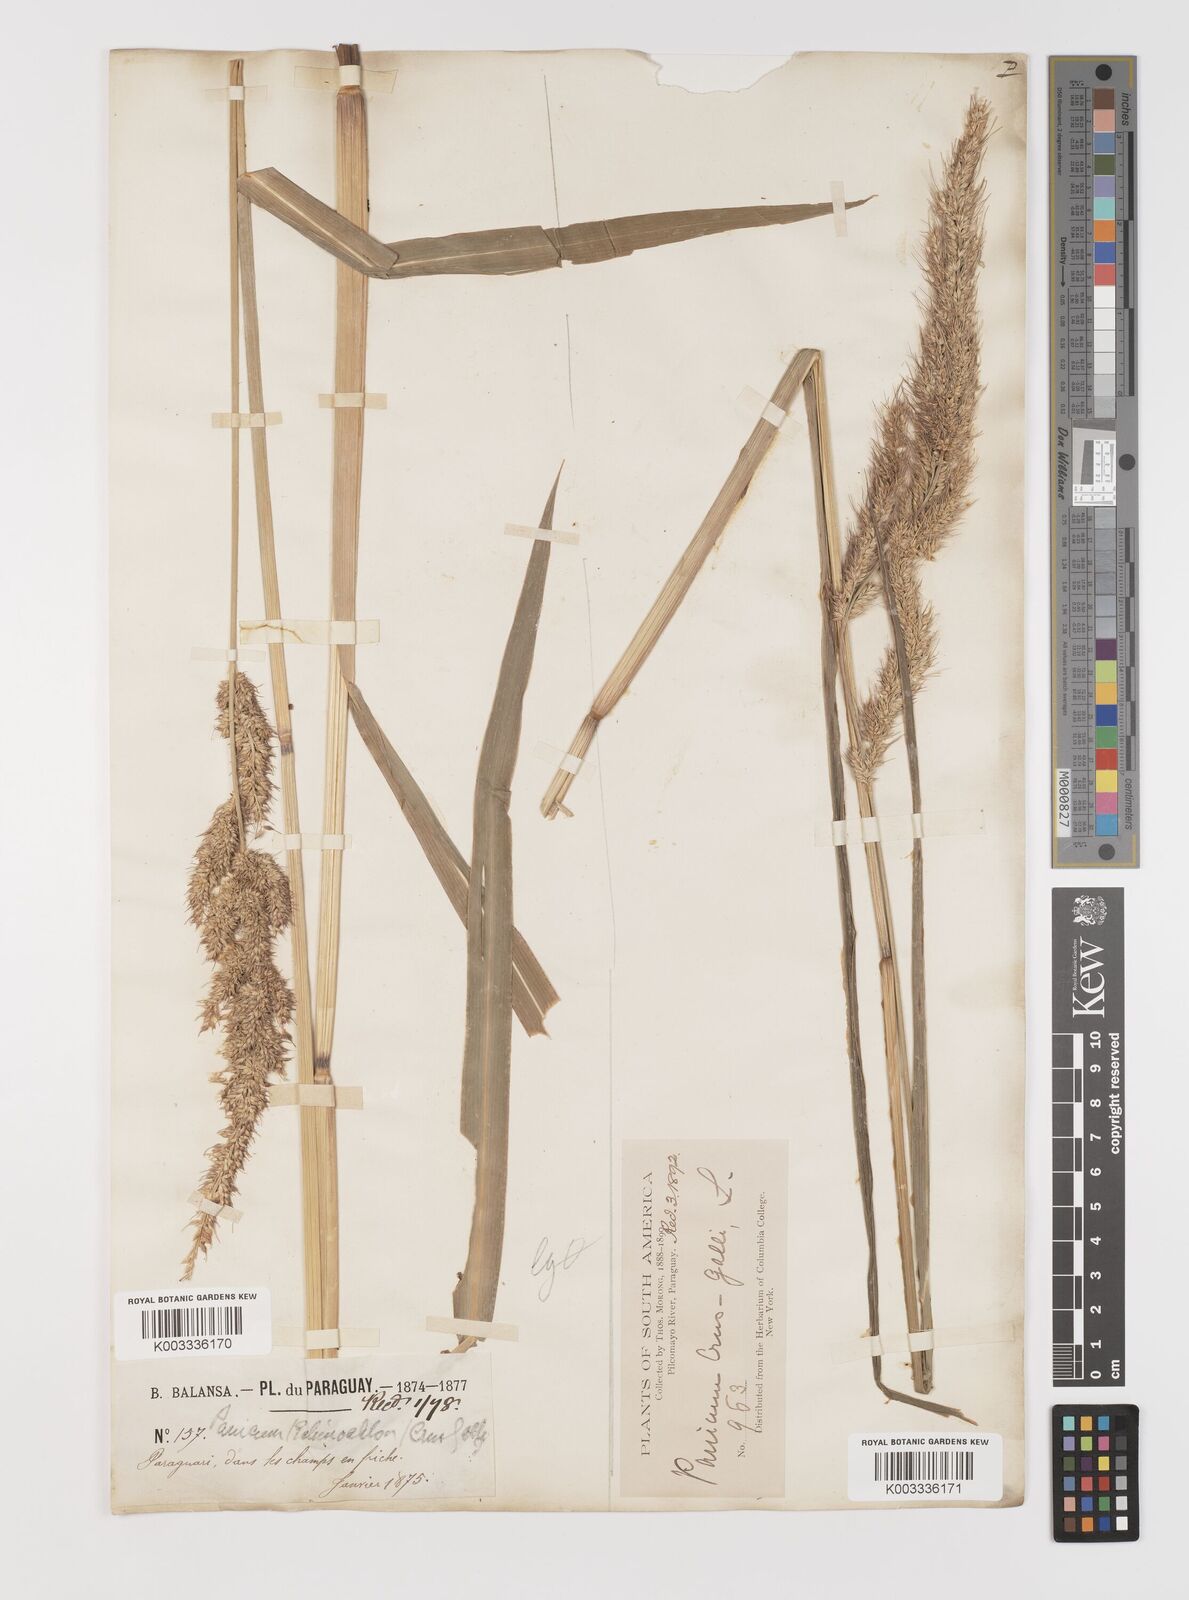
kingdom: Plantae
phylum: Tracheophyta
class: Liliopsida
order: Poales
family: Poaceae
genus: Echinochloa
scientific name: Echinochloa crus-pavonis
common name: Gulf cockspur grass
